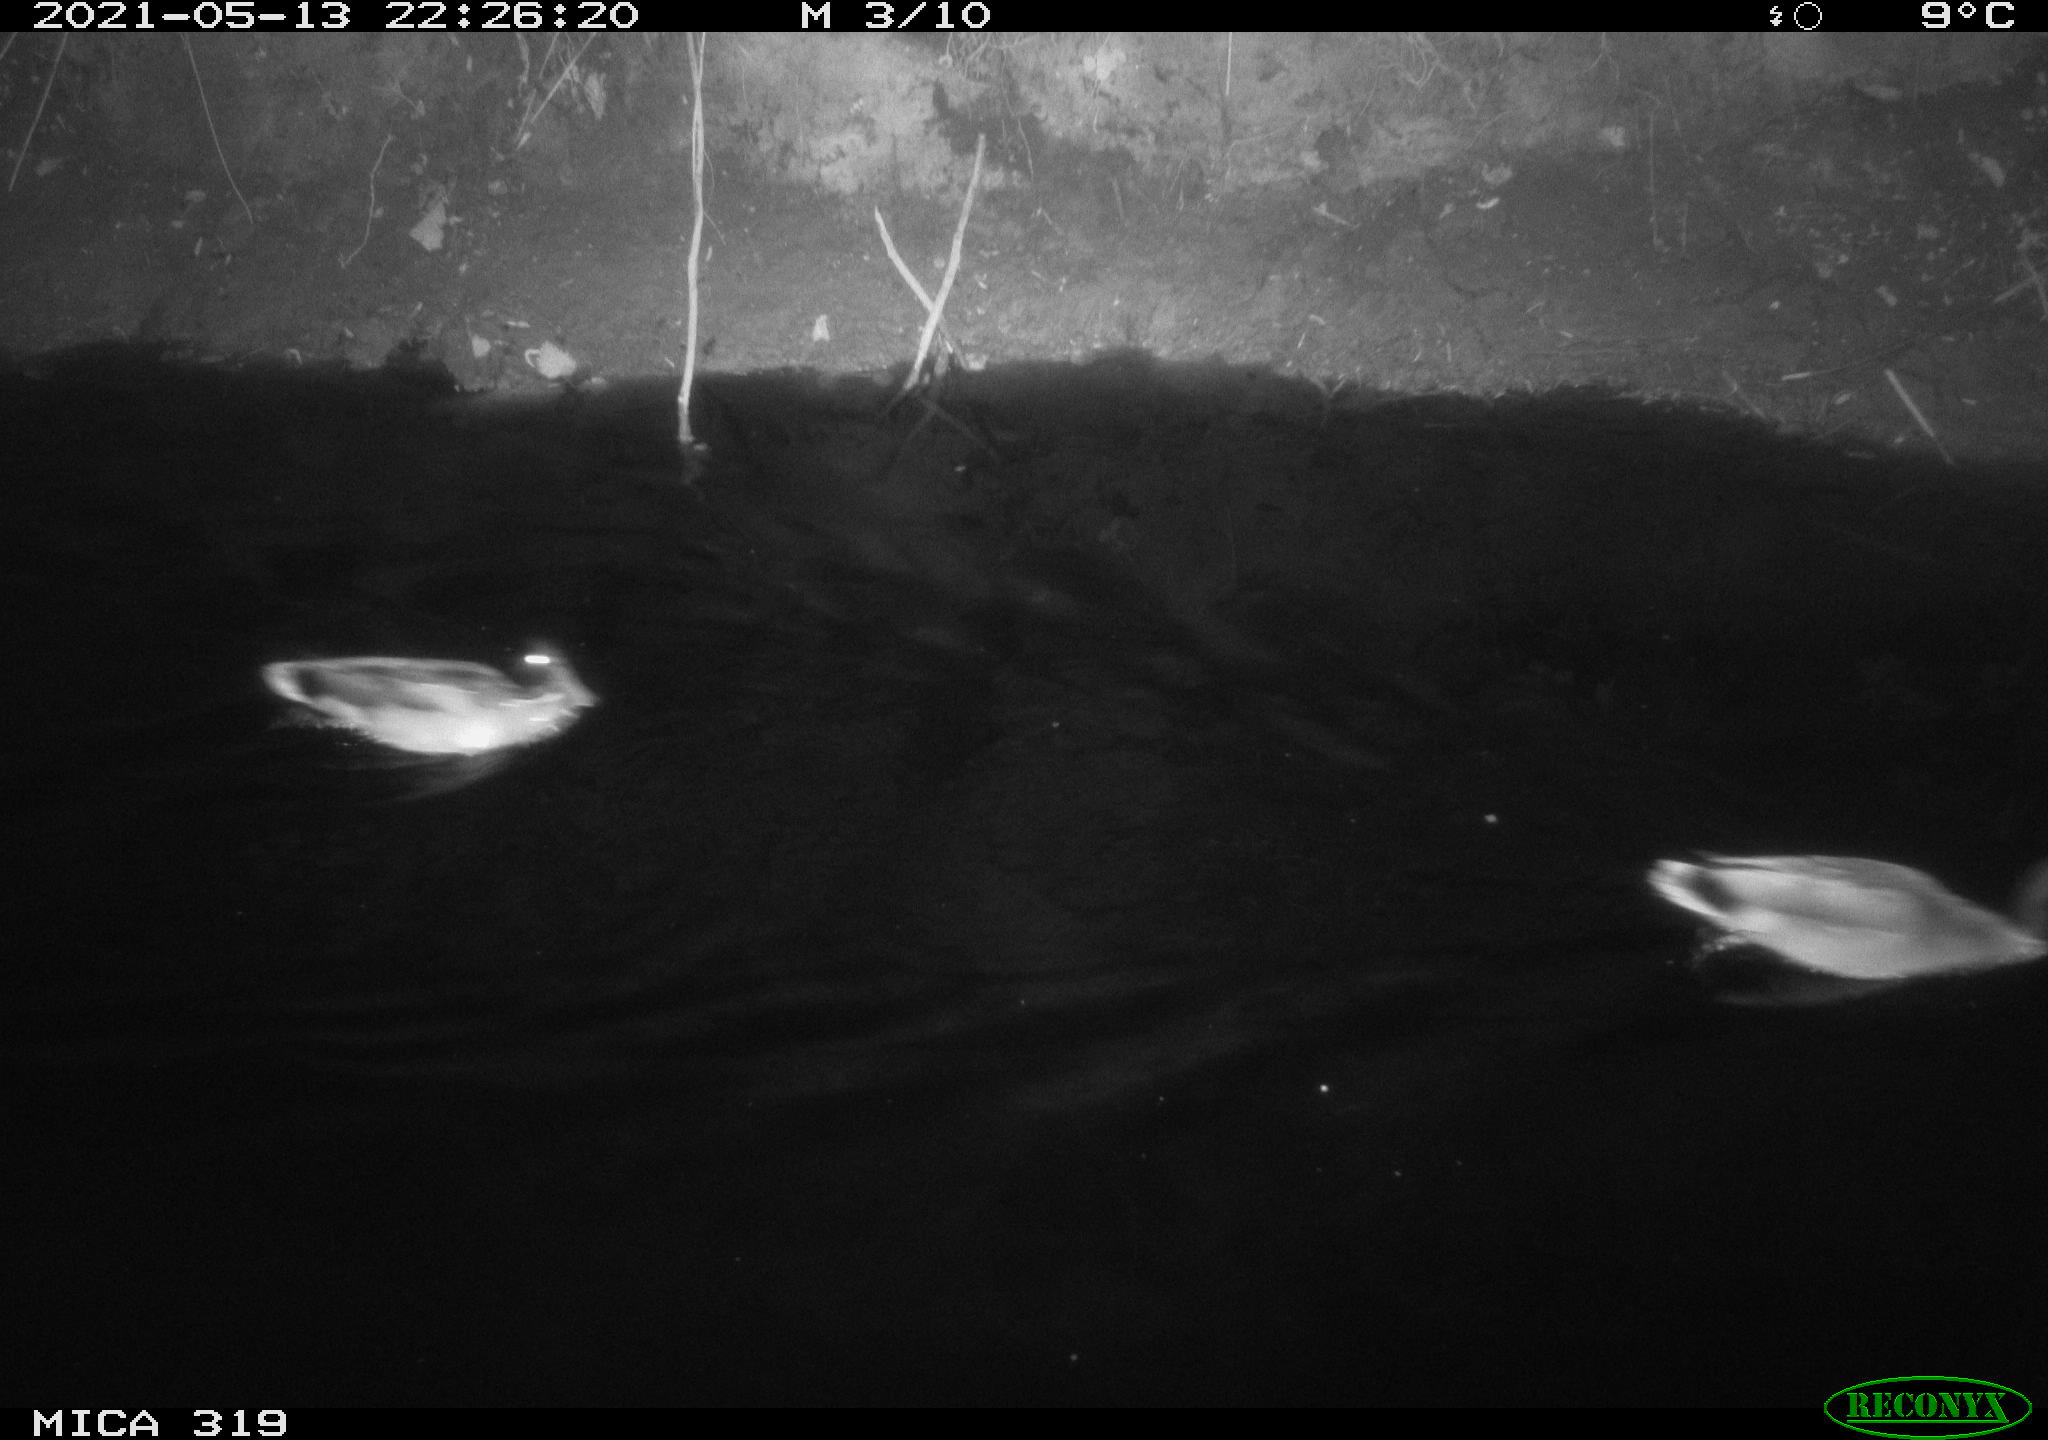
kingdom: Animalia
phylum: Chordata
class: Aves
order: Anseriformes
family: Anatidae
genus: Anas
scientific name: Anas platyrhynchos
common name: Mallard
